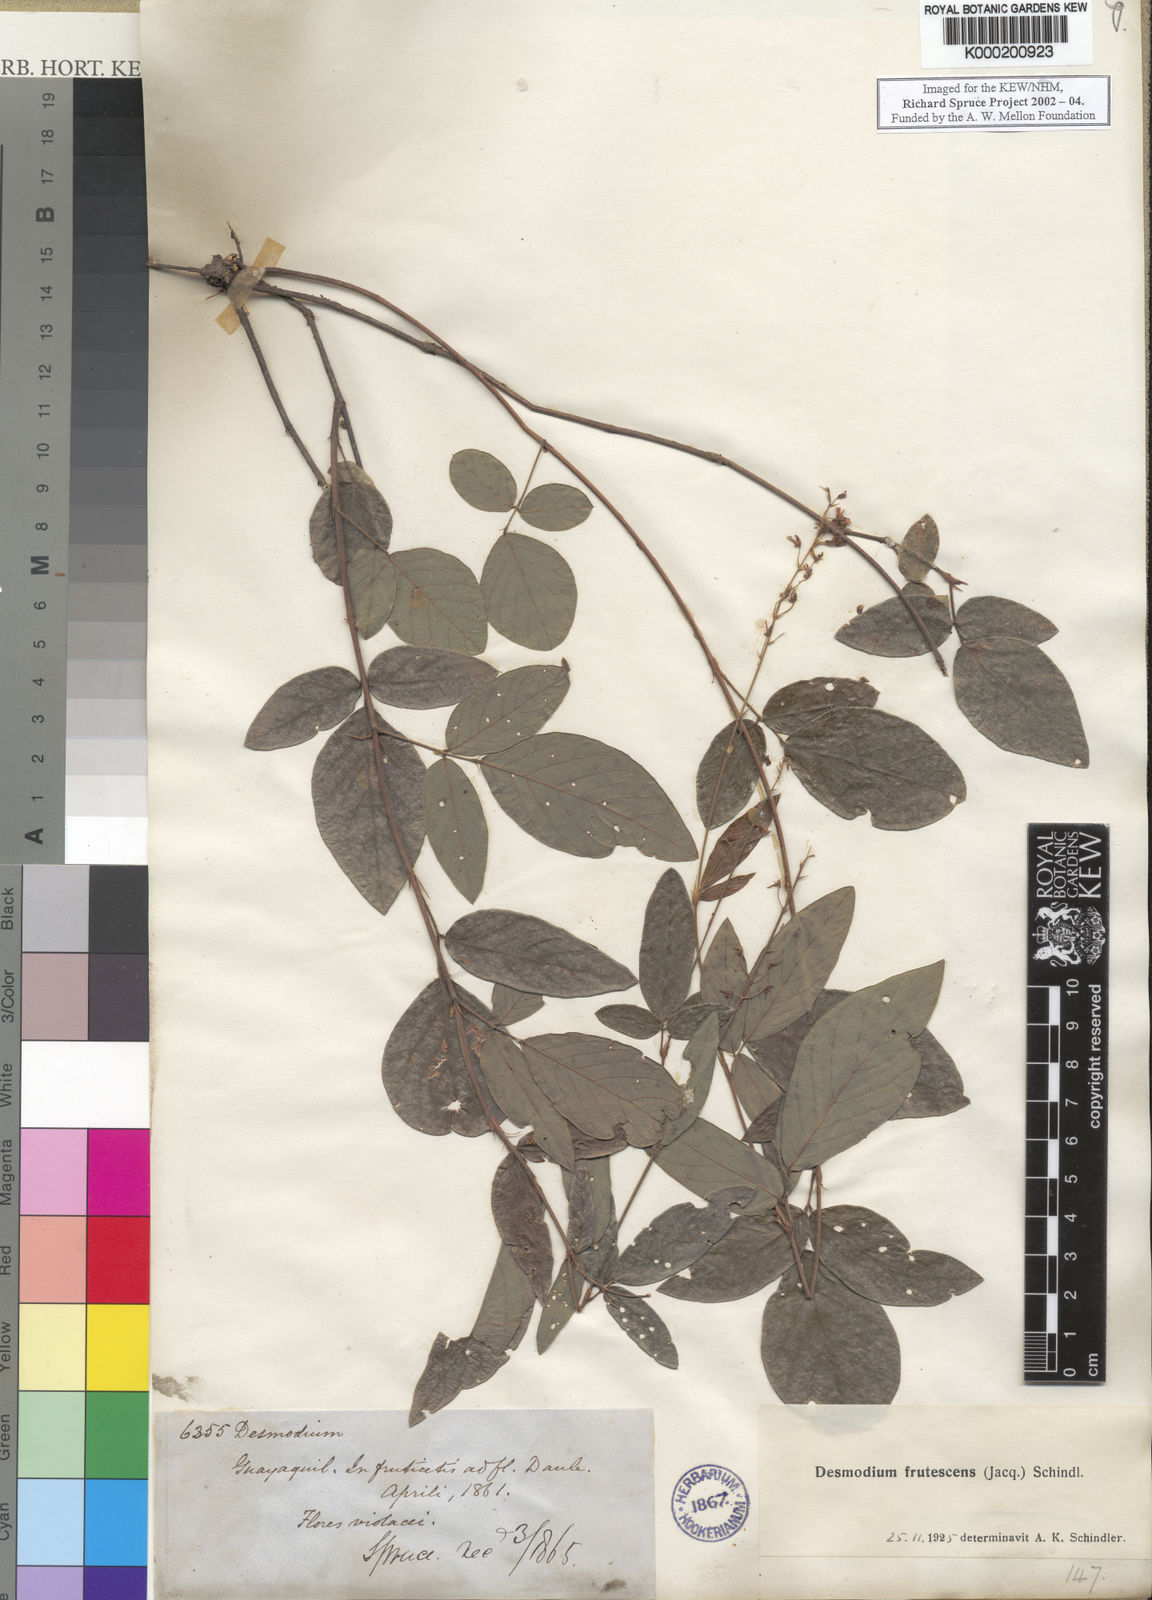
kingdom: Plantae
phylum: Tracheophyta
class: Magnoliopsida
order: Fabales
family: Fabaceae
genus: Desmodium
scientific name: Desmodium incanum
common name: Tickclover
